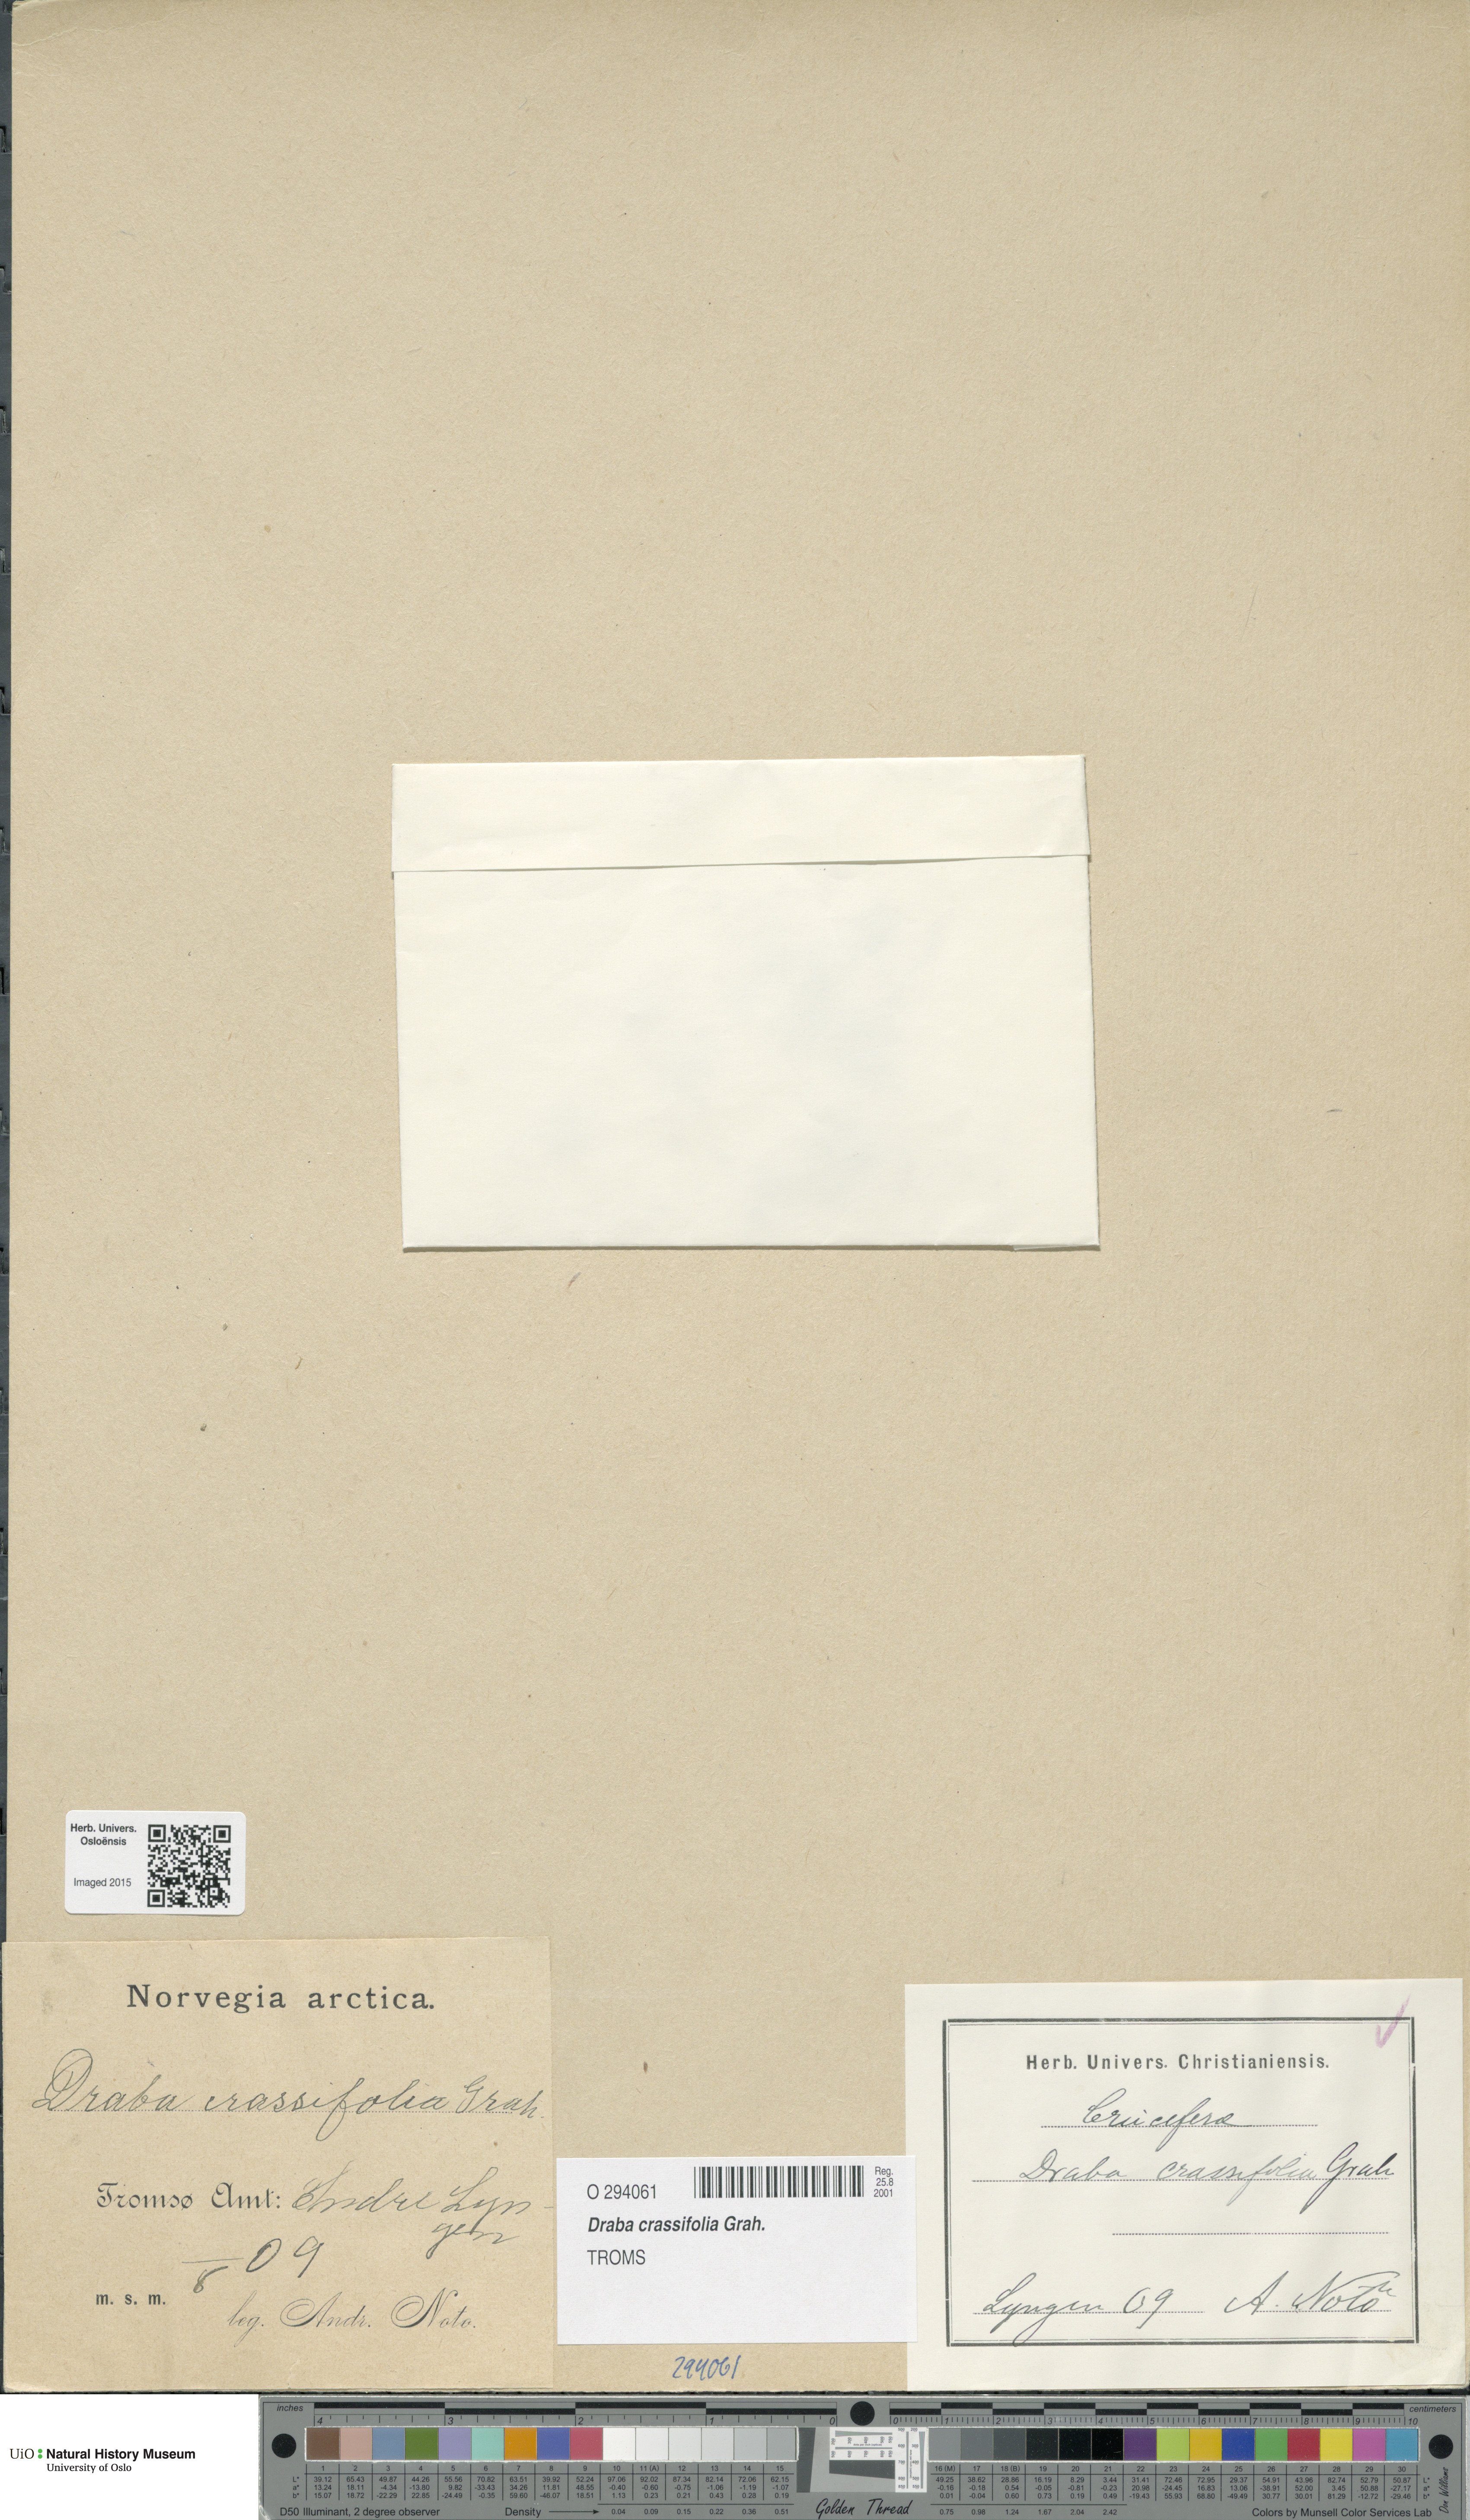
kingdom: Plantae
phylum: Tracheophyta
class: Magnoliopsida
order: Brassicales
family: Brassicaceae
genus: Draba
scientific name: Draba crassifolia
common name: Rocky mountain draba
